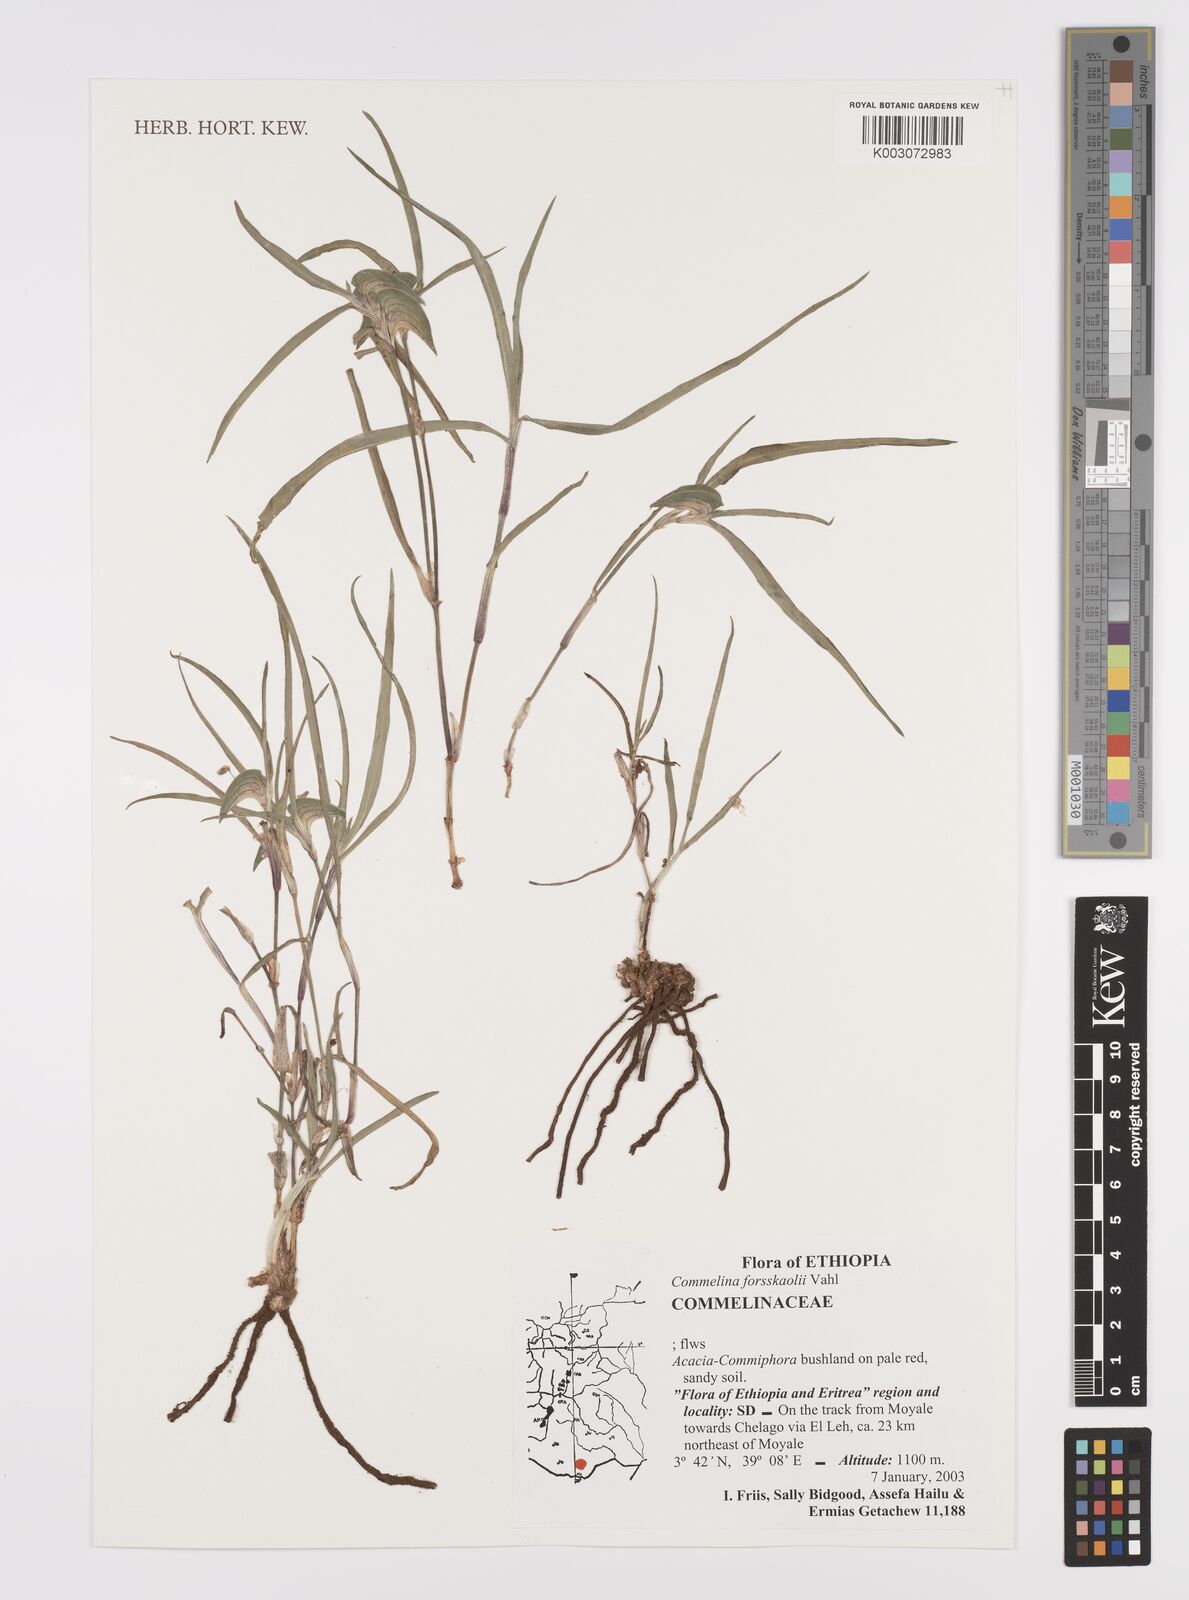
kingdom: Plantae
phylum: Tracheophyta
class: Liliopsida
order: Commelinales
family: Commelinaceae
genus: Commelina
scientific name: Commelina forskaolii
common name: Rat's ear
